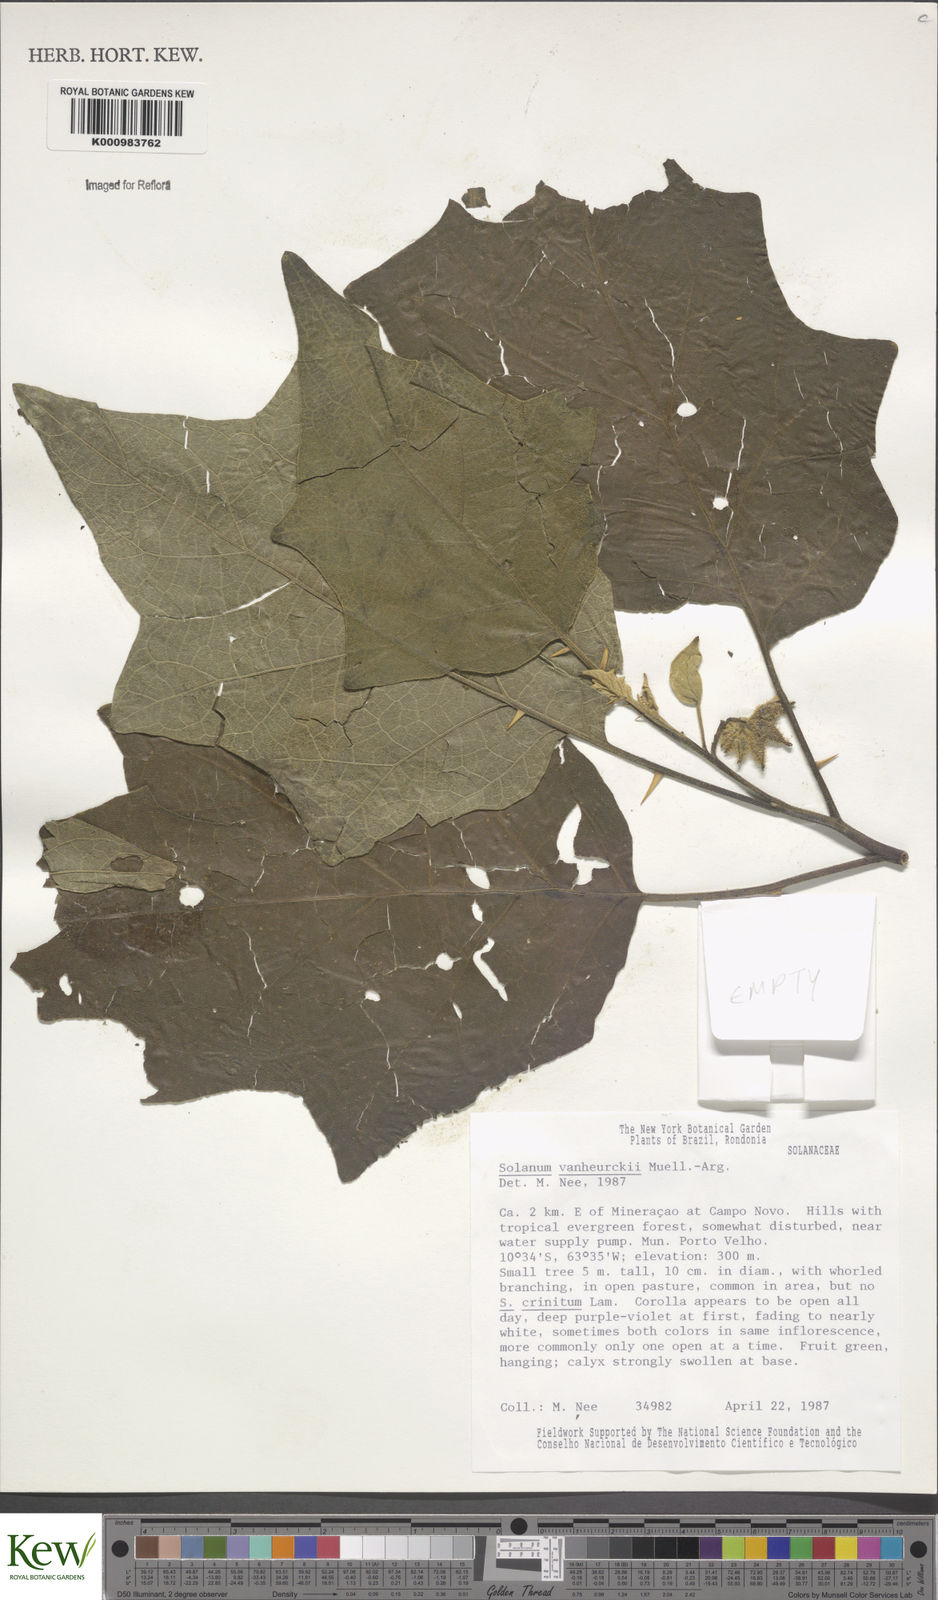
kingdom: Plantae
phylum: Tracheophyta
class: Magnoliopsida
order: Solanales
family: Solanaceae
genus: Solanum
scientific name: Solanum
